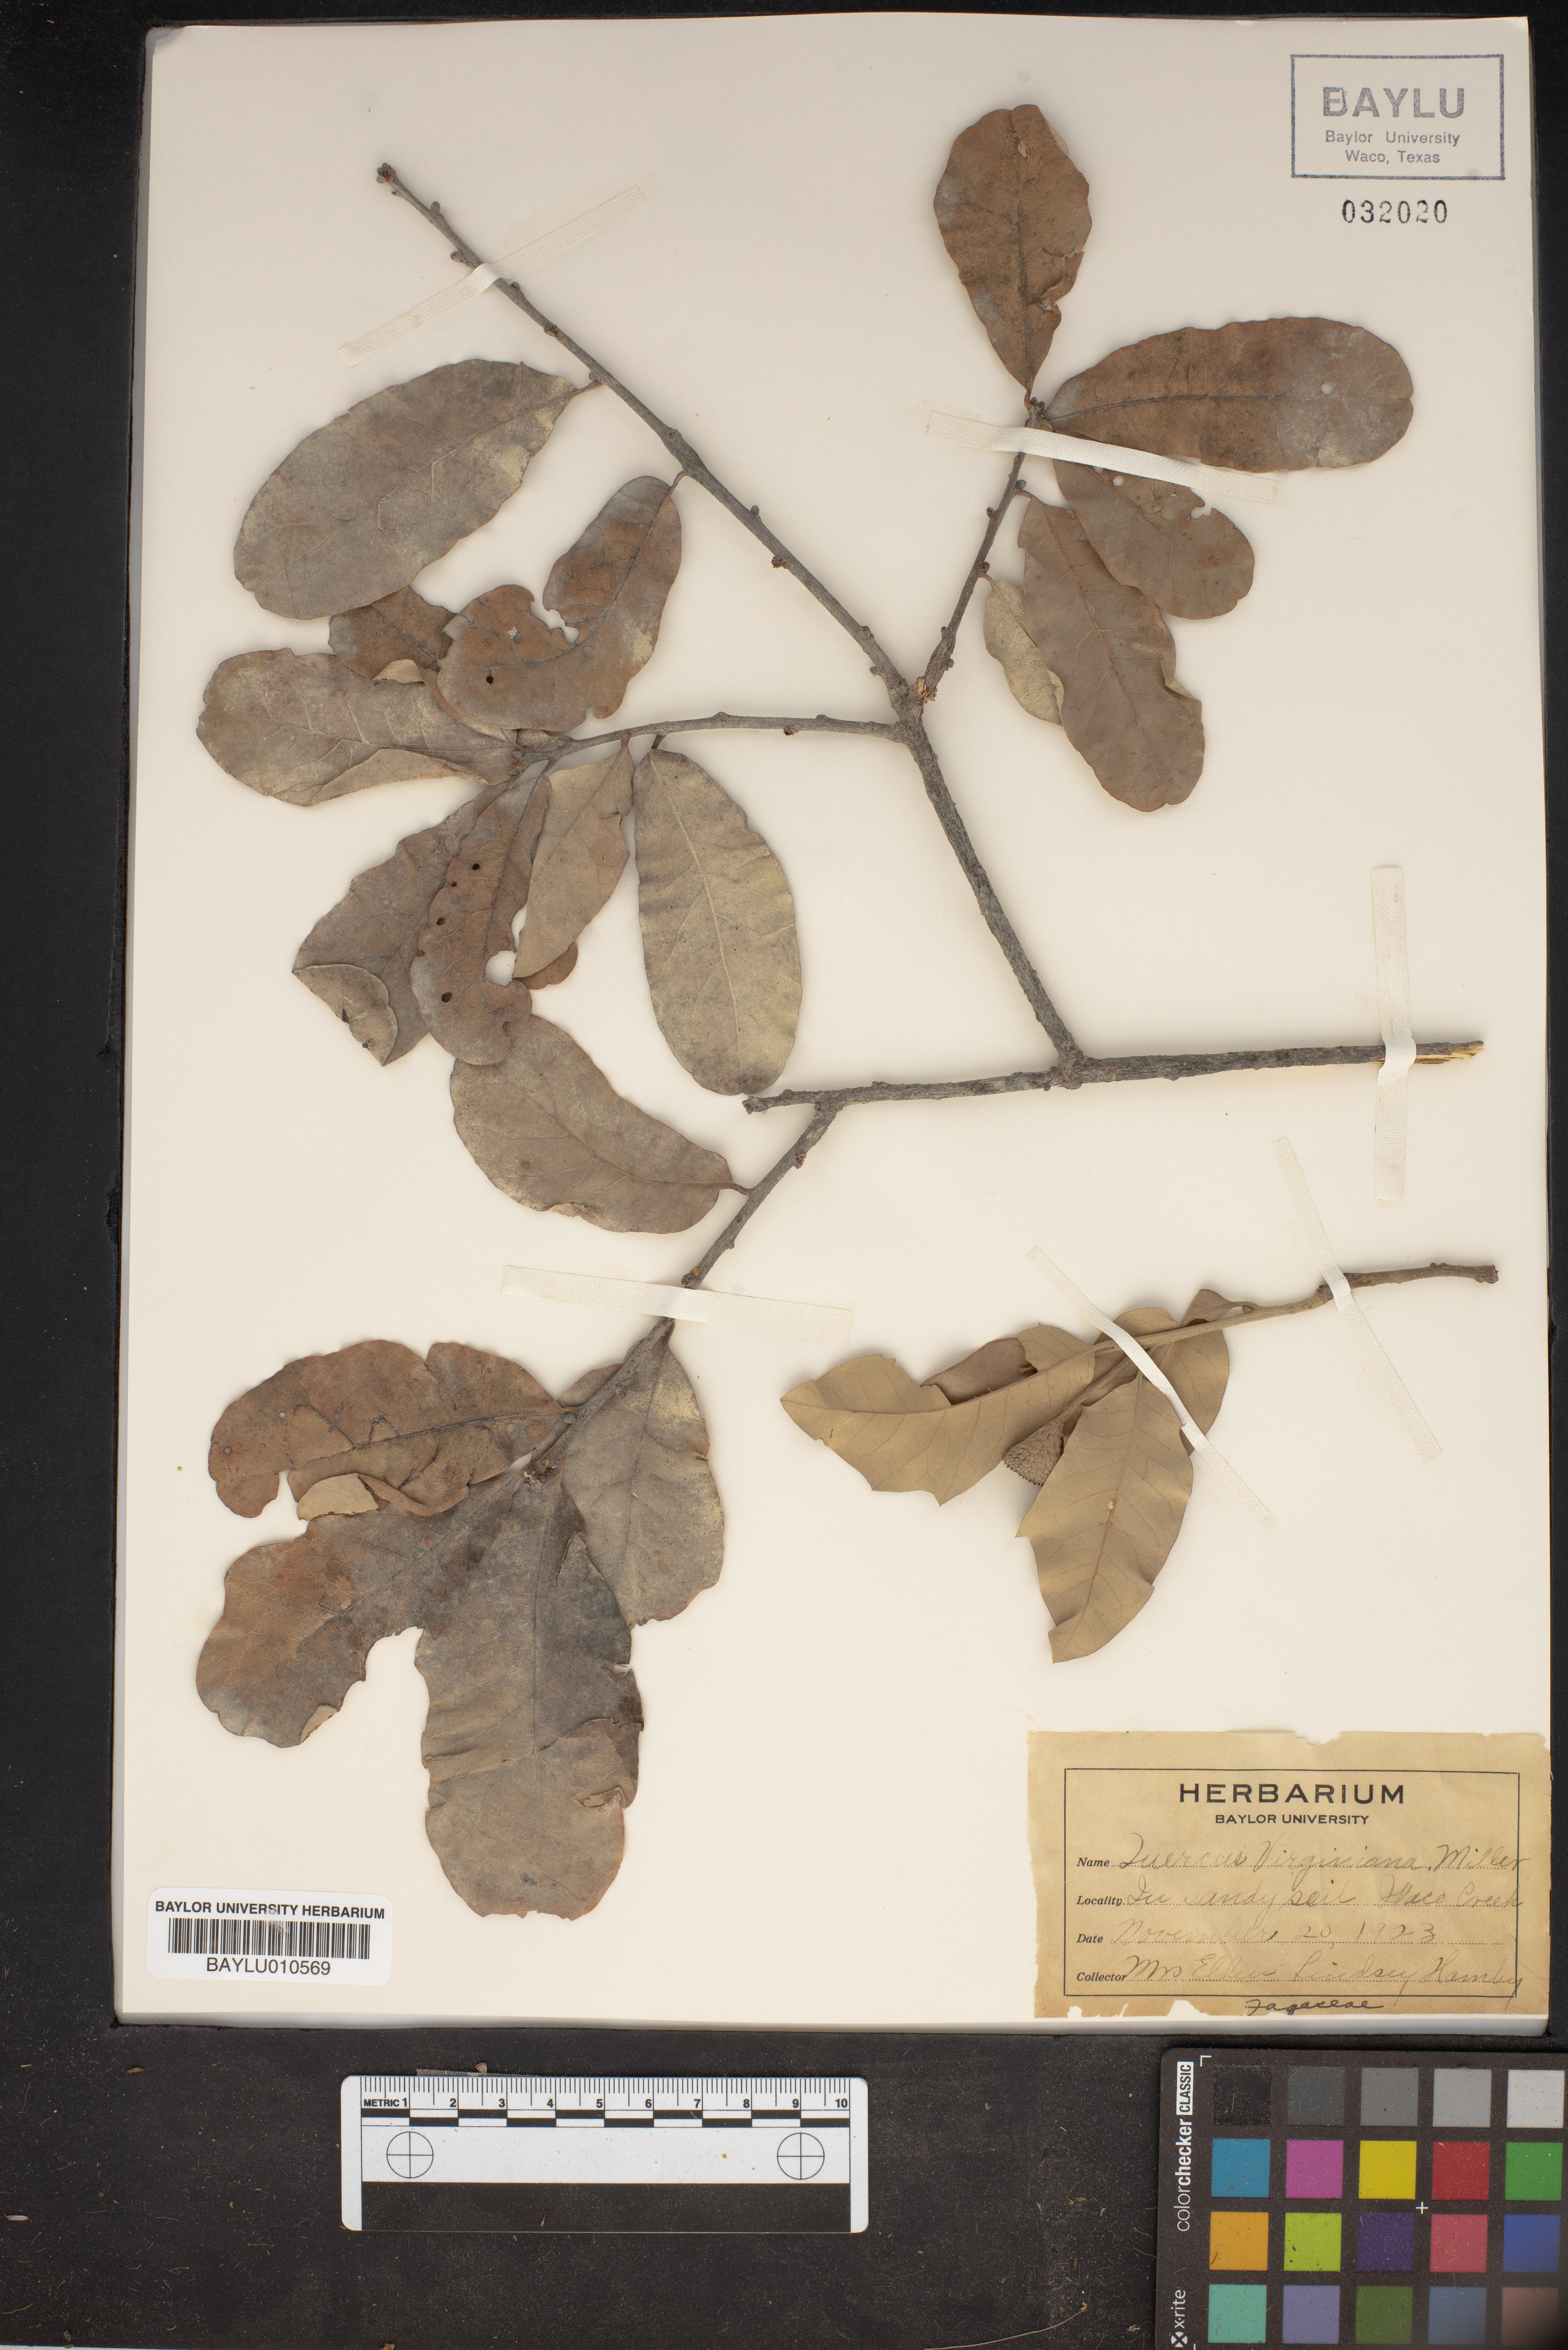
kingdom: Plantae
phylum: Tracheophyta
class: Magnoliopsida
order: Fagales
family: Fagaceae
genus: Quercus
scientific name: Quercus virginiana
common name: Southern live oak
